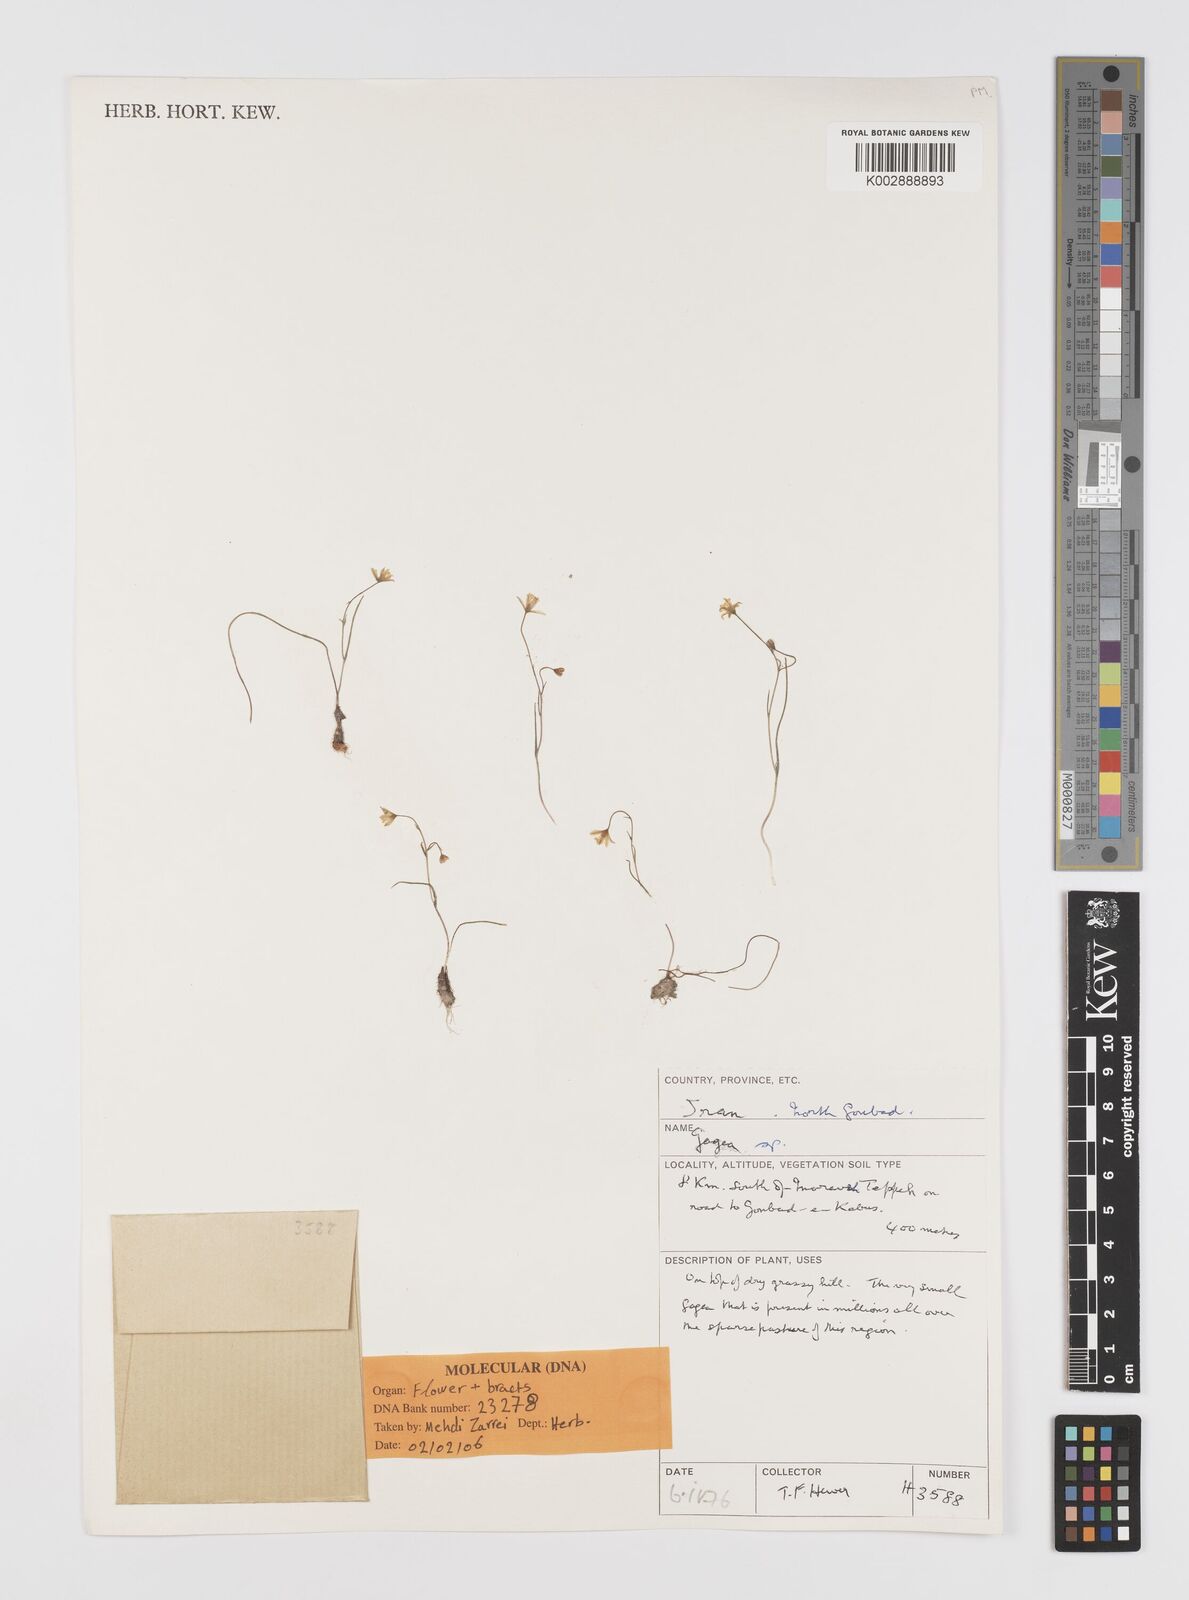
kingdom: Plantae
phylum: Tracheophyta
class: Liliopsida
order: Liliales
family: Liliaceae
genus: Gagea
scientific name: Gagea
